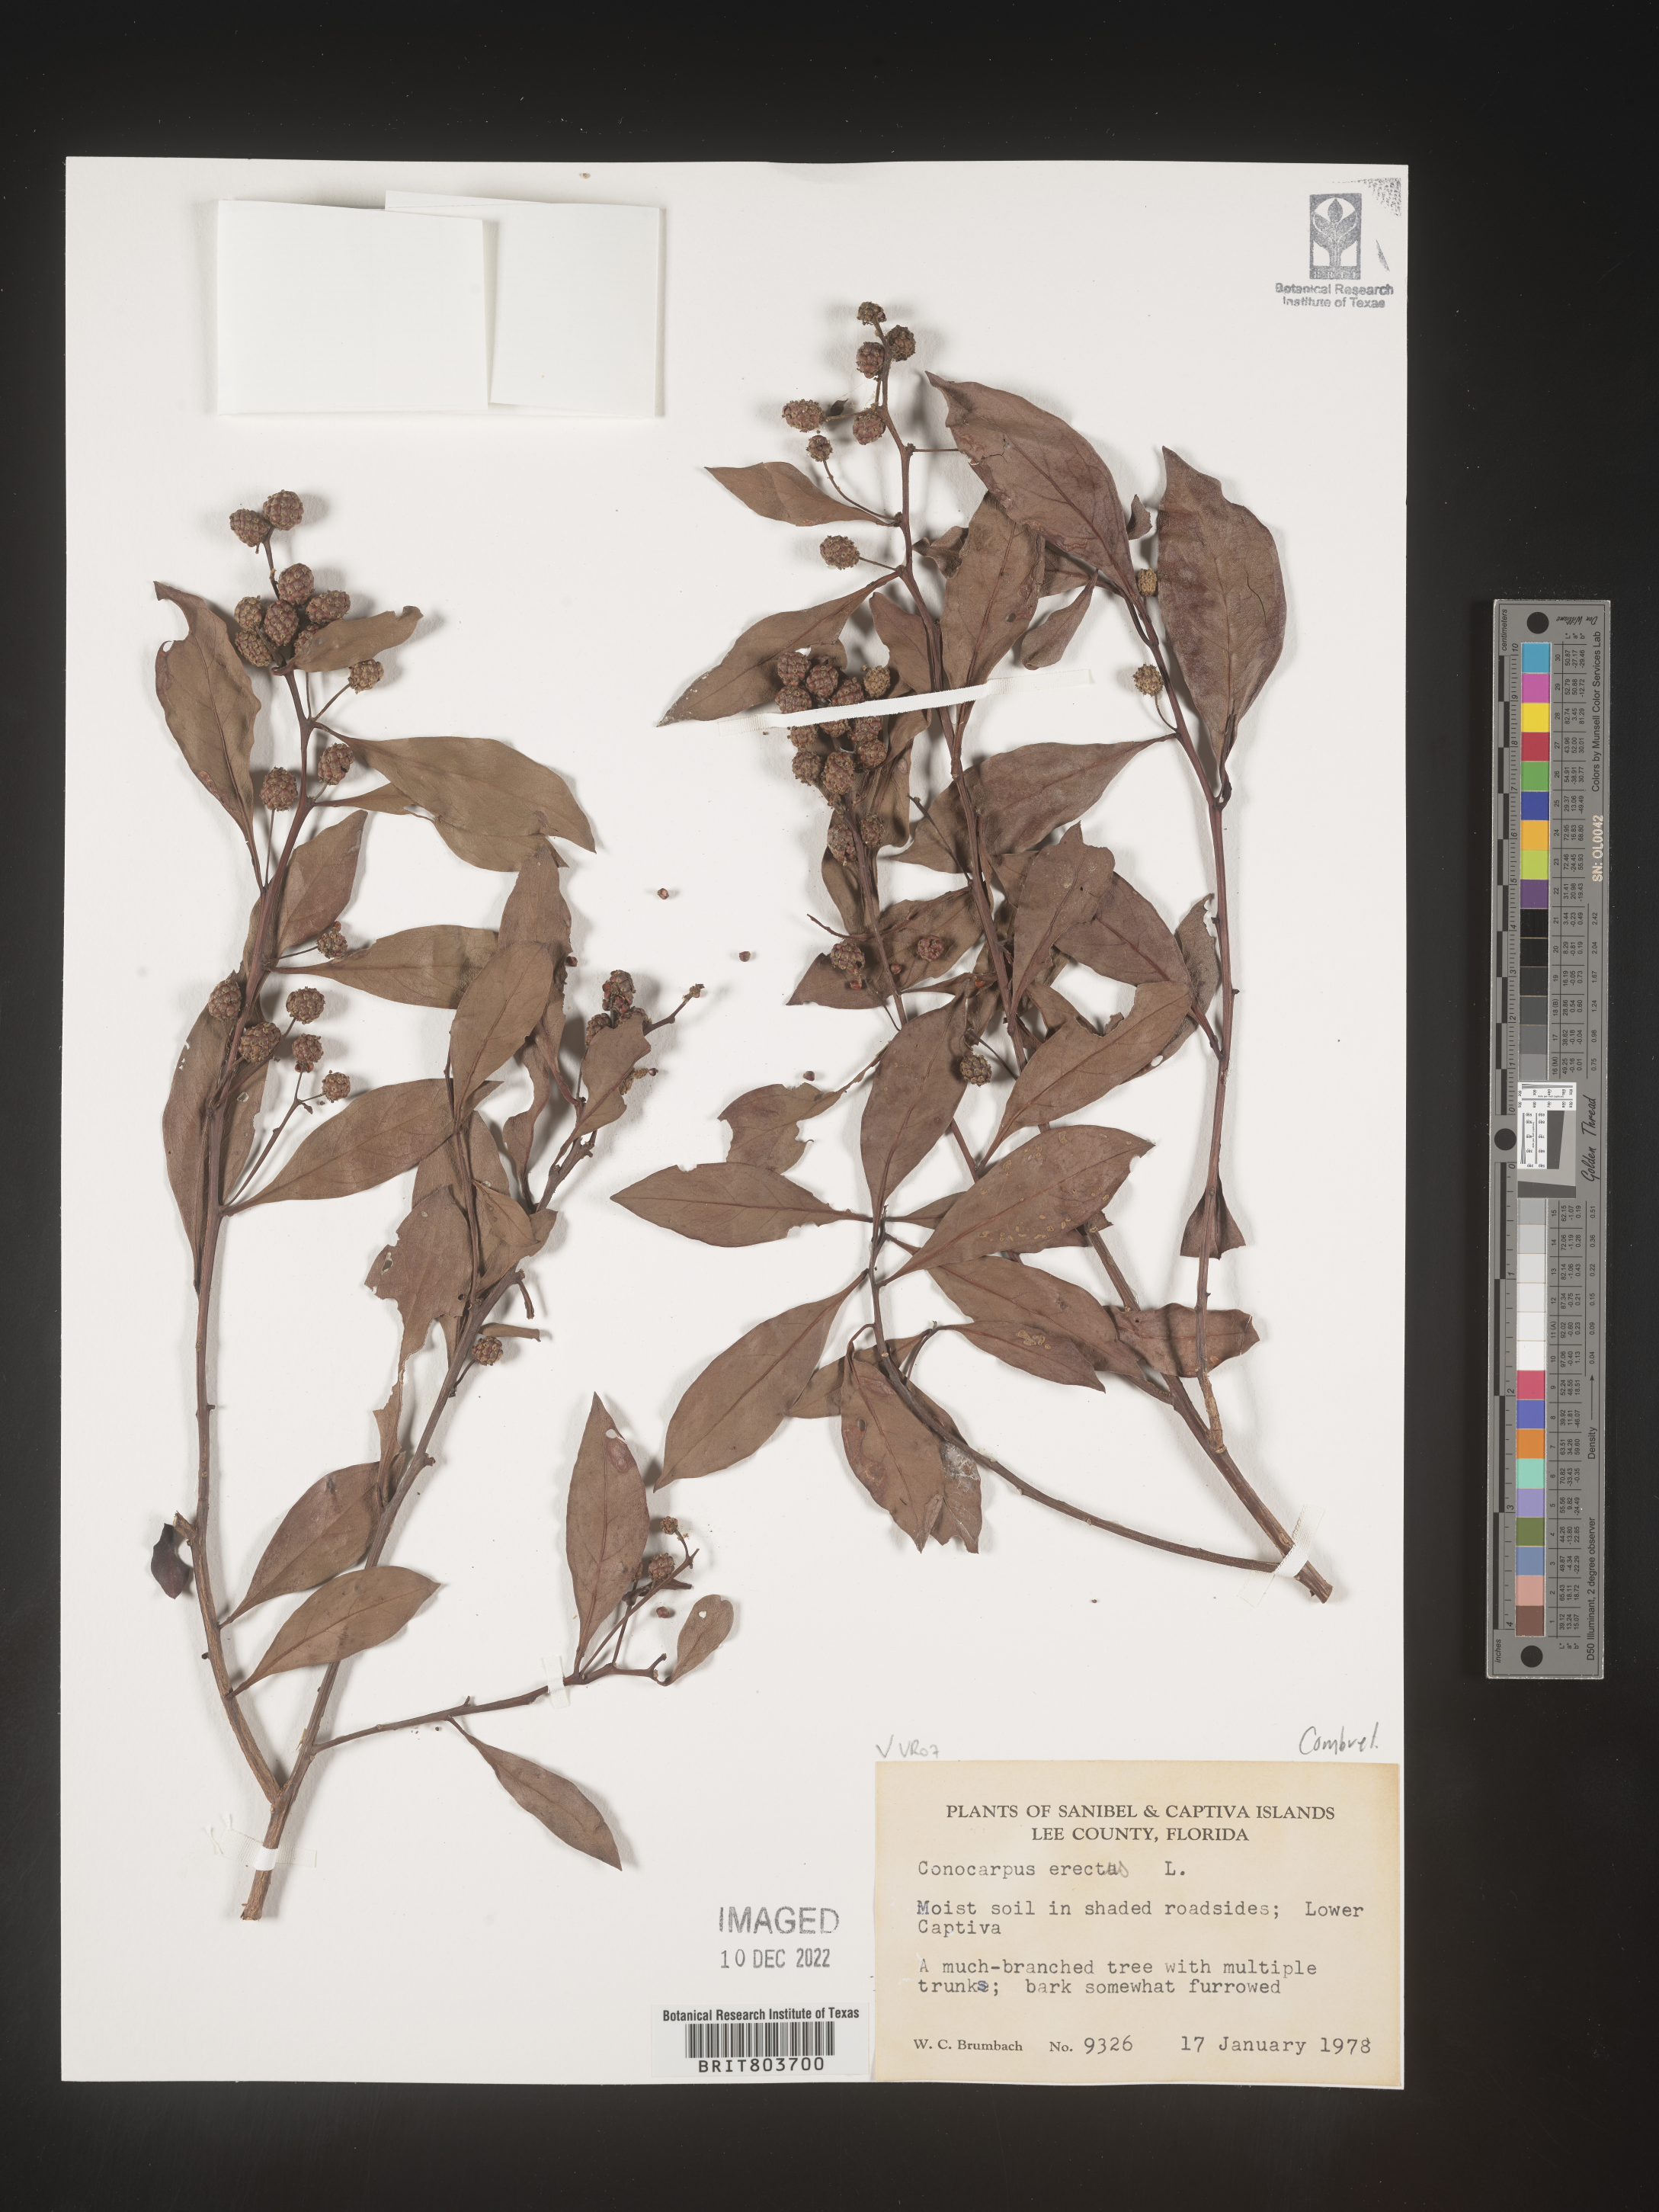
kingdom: Plantae
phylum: Tracheophyta
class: Magnoliopsida
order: Myrtales
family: Combretaceae
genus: Conocarpus
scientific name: Conocarpus erectus
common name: Button mangrove
